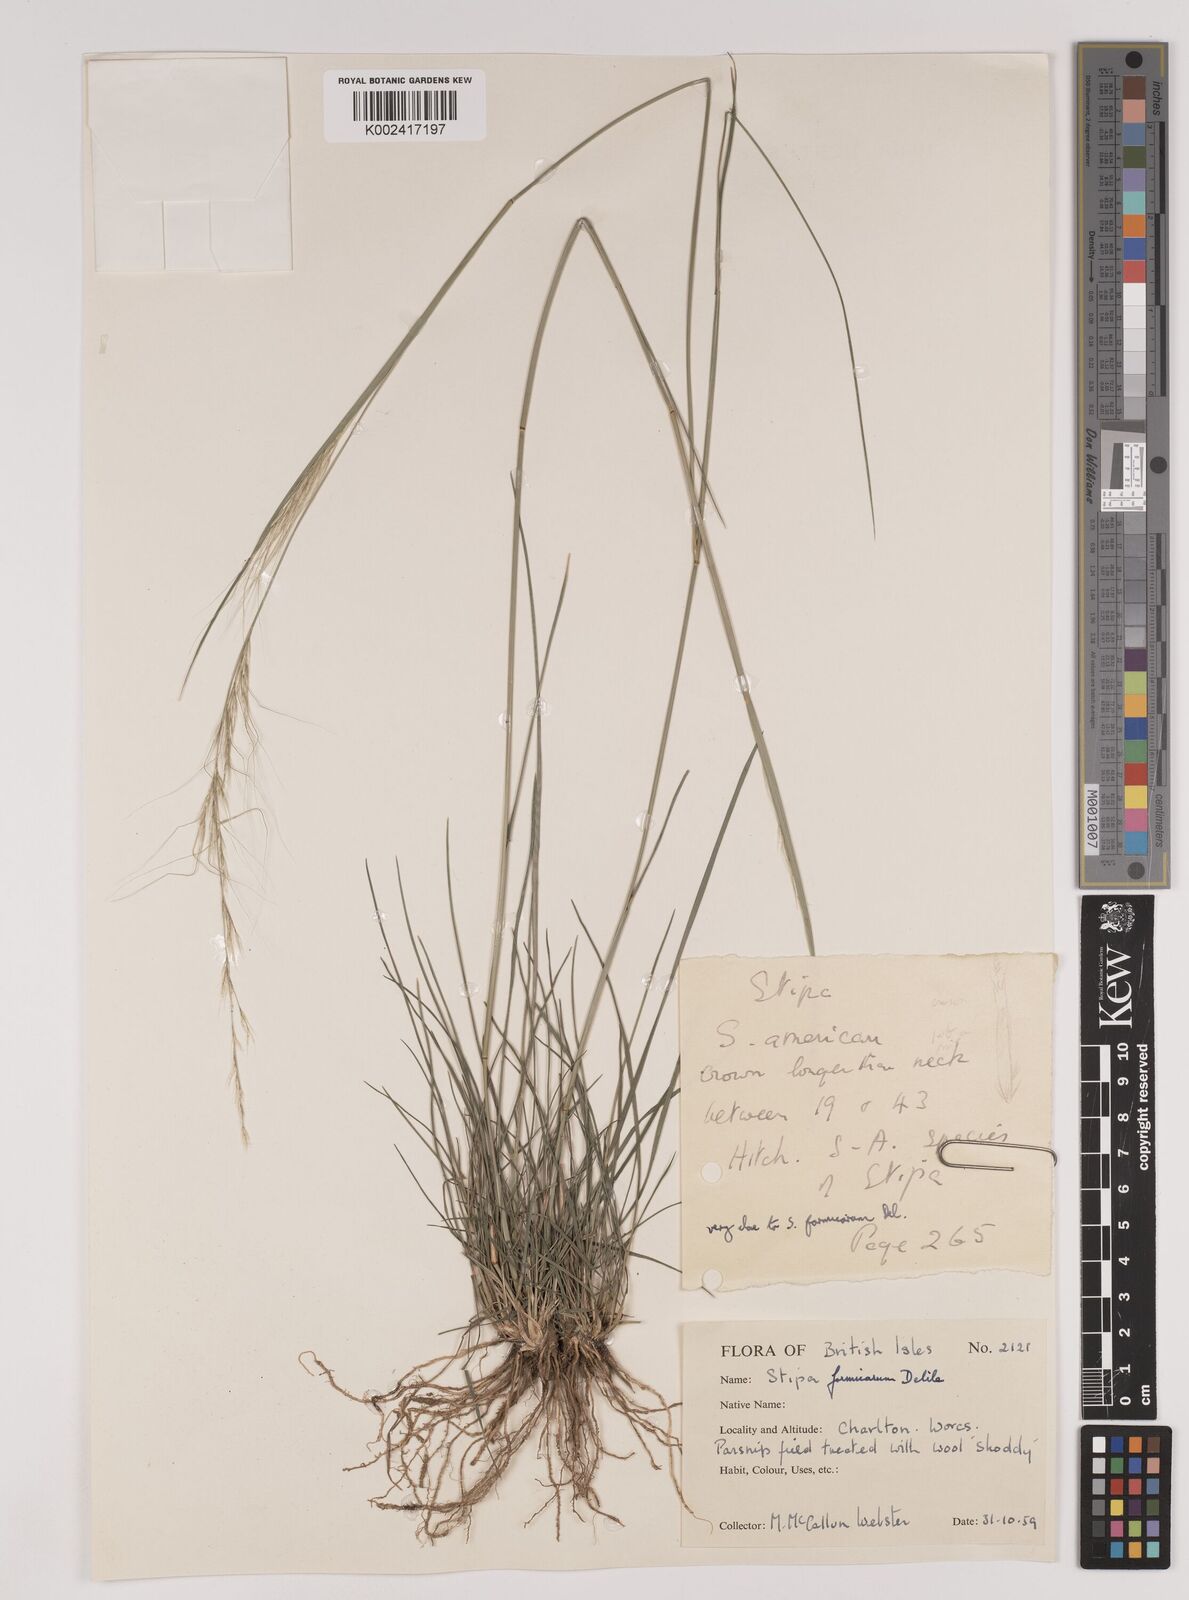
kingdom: Plantae
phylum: Tracheophyta
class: Liliopsida
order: Poales
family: Poaceae
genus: Nassella
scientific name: Nassella formicarum
